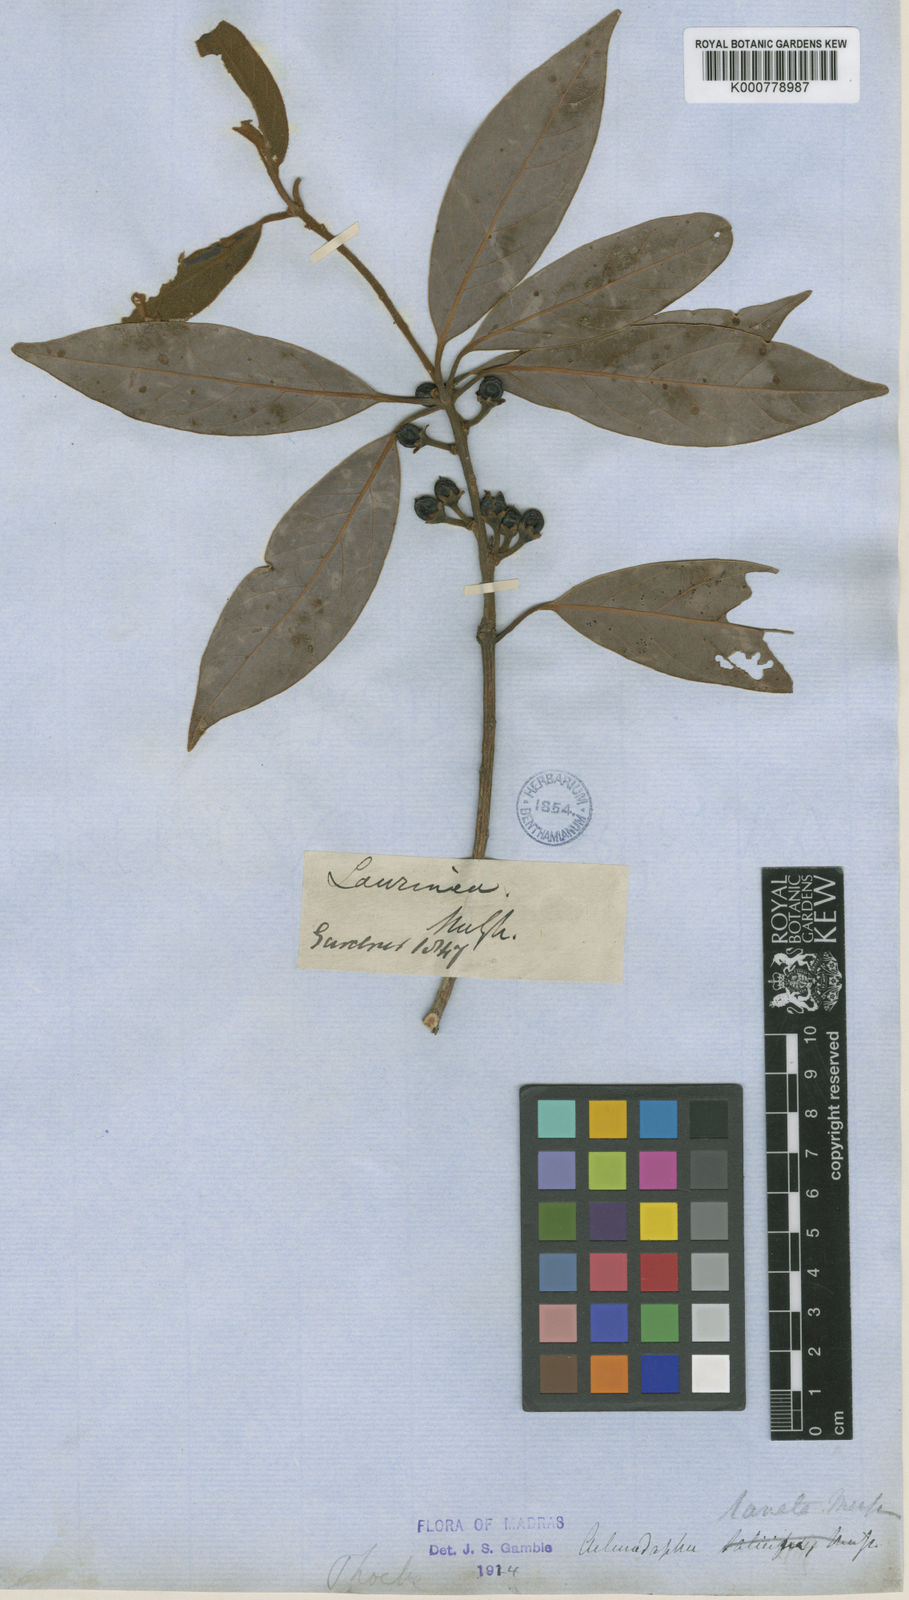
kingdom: Plantae
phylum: Tracheophyta
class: Magnoliopsida
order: Laurales
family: Lauraceae
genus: Actinodaphne
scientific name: Actinodaphne lanata
